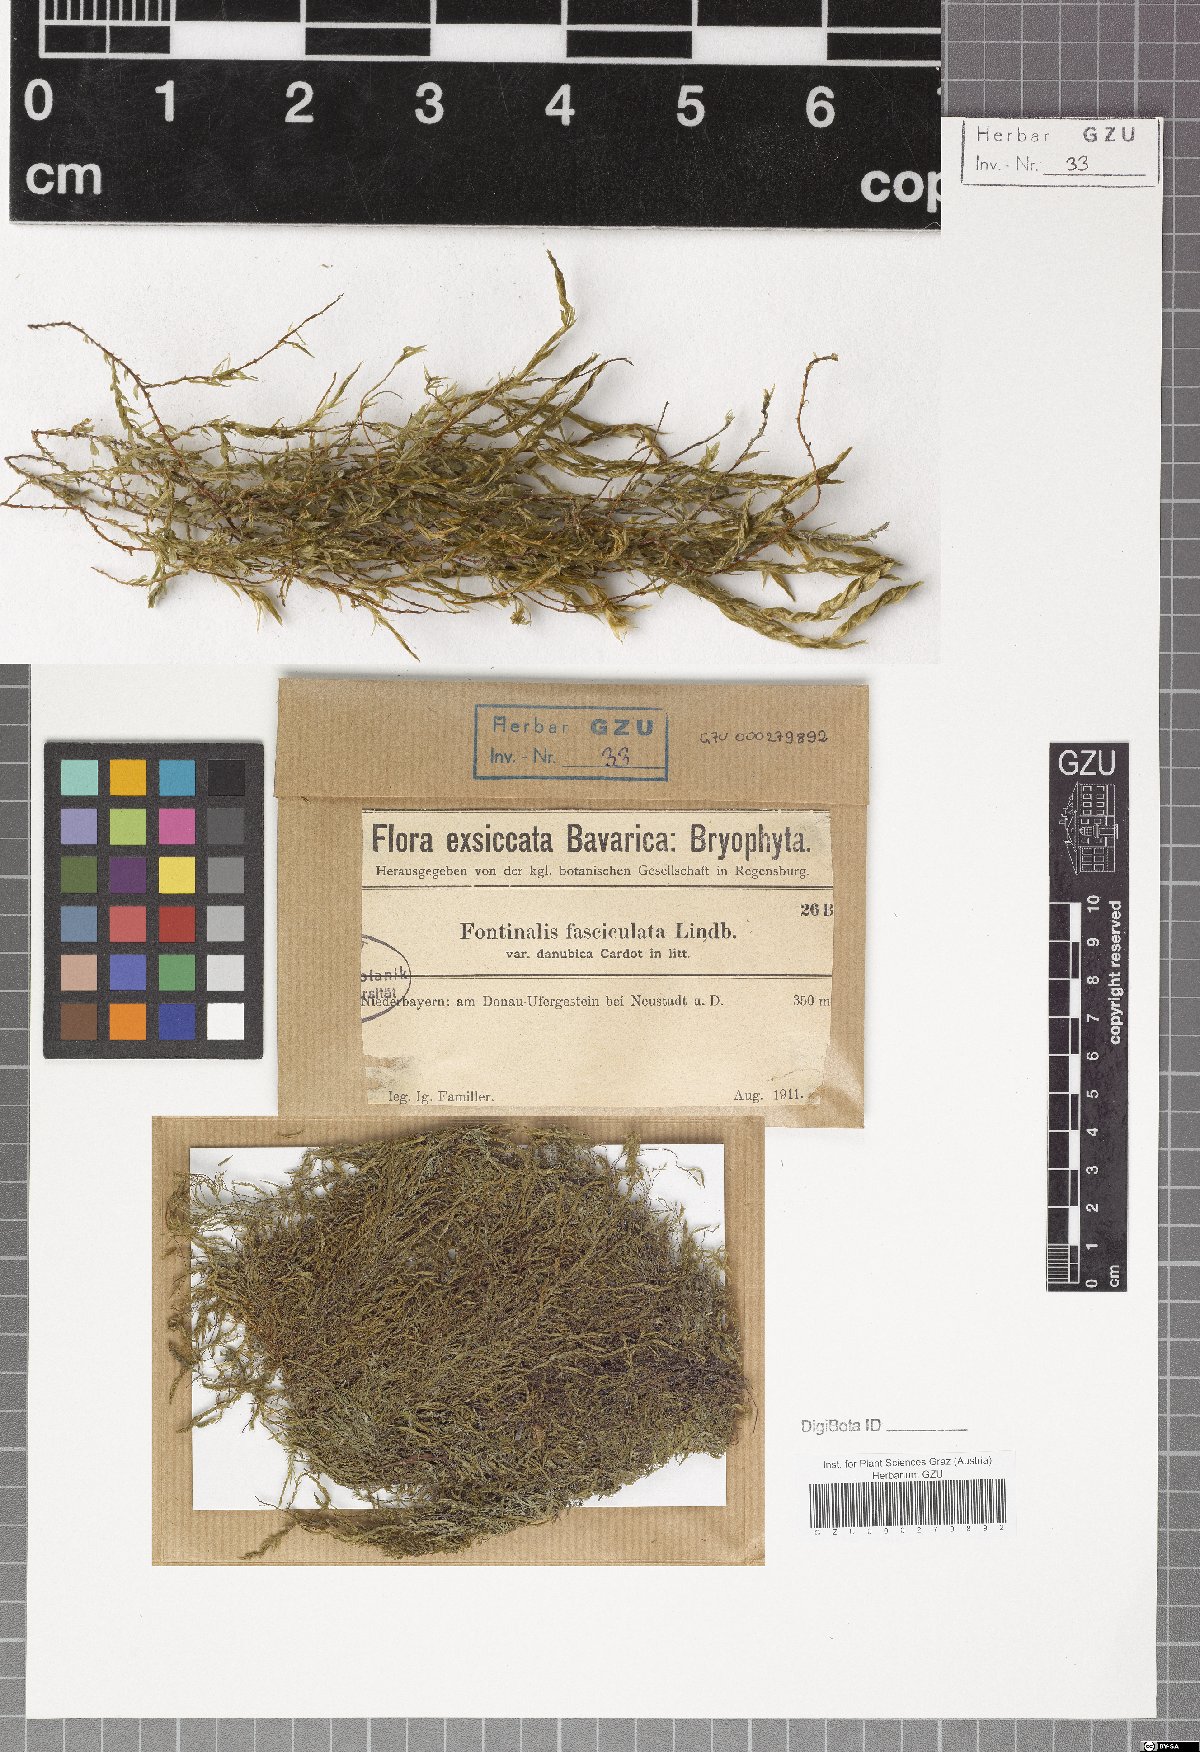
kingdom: Plantae
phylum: Bryophyta
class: Bryopsida
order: Hypnales
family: Fontinalaceae
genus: Fontinalis
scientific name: Fontinalis antipyretica
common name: Greater water-moss
